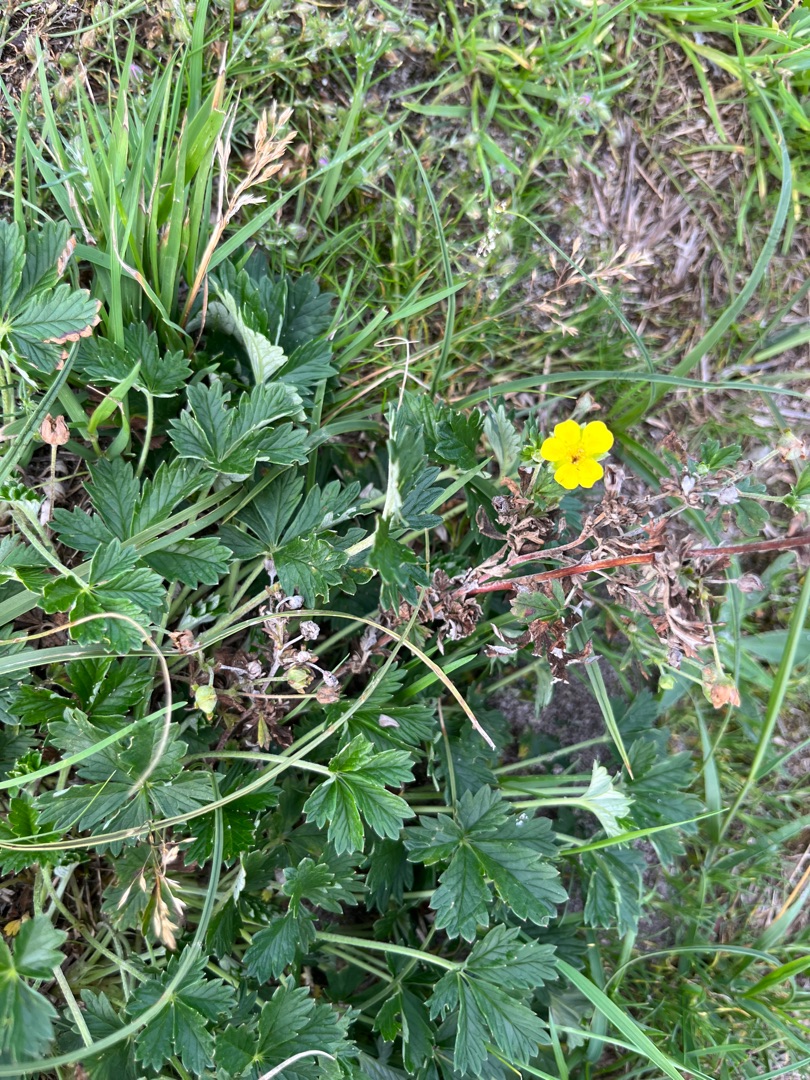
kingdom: Plantae
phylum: Tracheophyta
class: Magnoliopsida
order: Rosales
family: Rosaceae
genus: Potentilla
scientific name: Potentilla argentea
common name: Sølv-potentil
